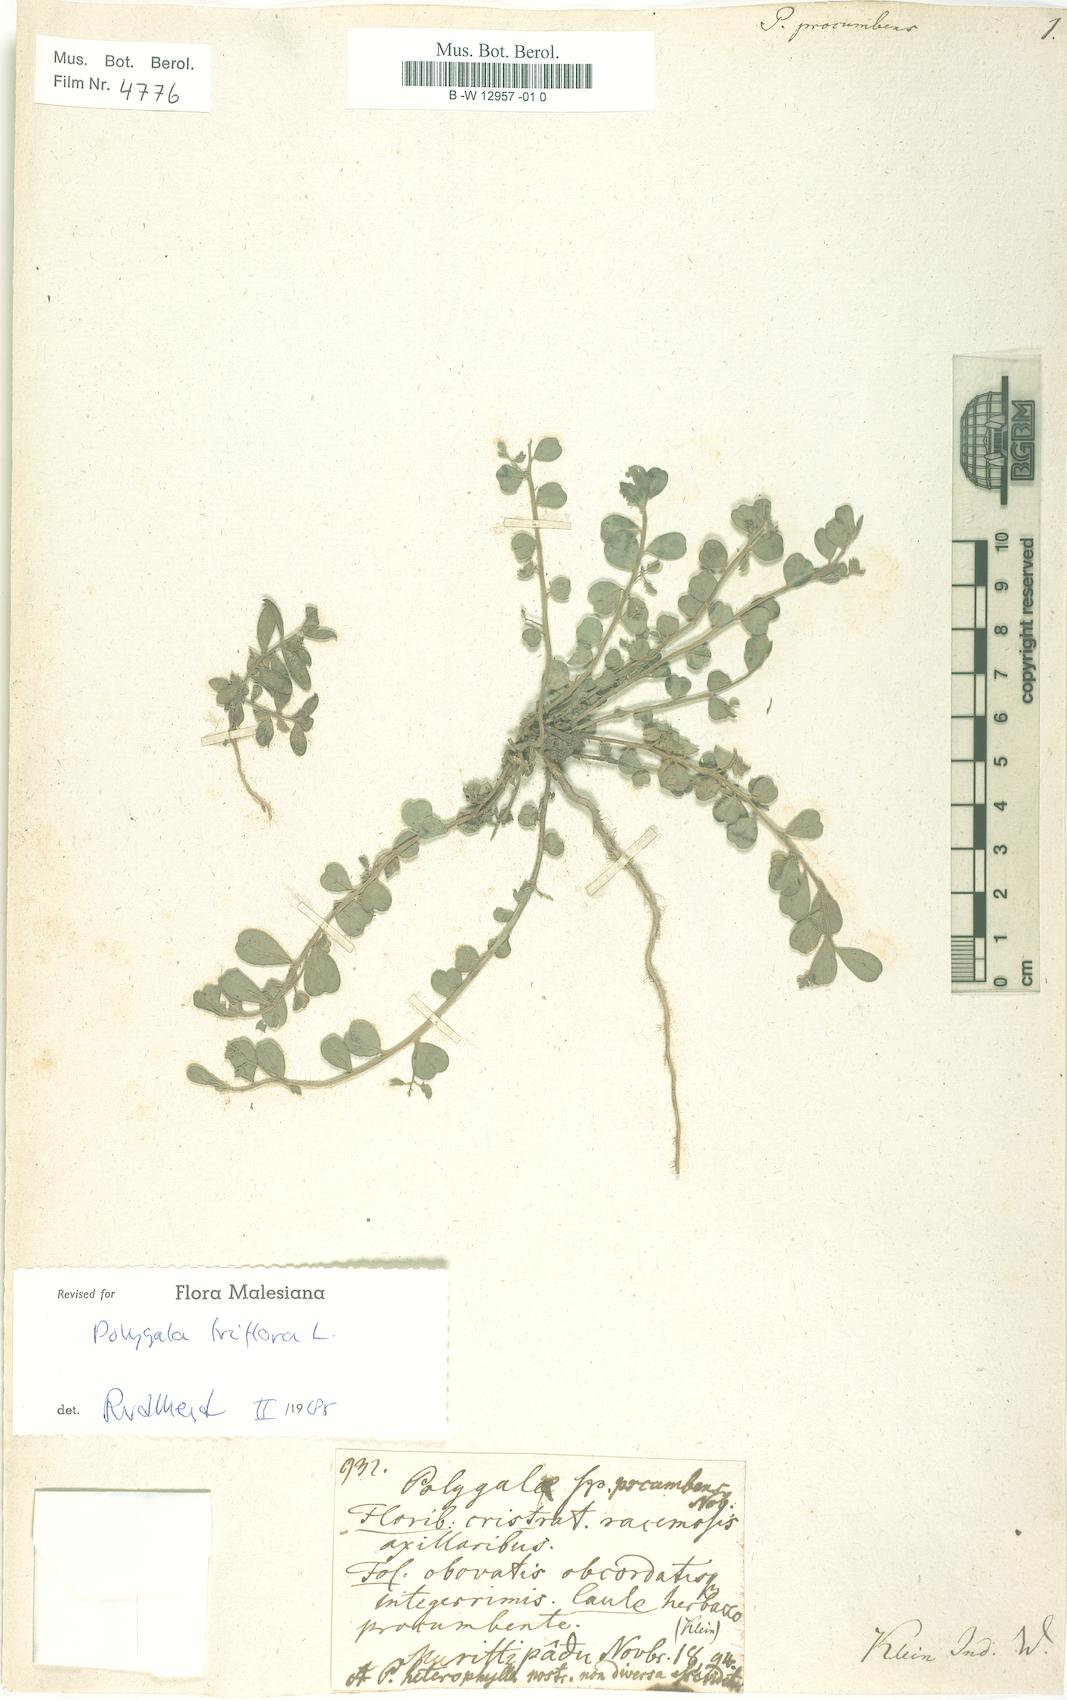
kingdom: Plantae
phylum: Tracheophyta
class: Magnoliopsida
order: Fabales
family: Polygalaceae
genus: Polygala
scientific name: Polygala glomerata
